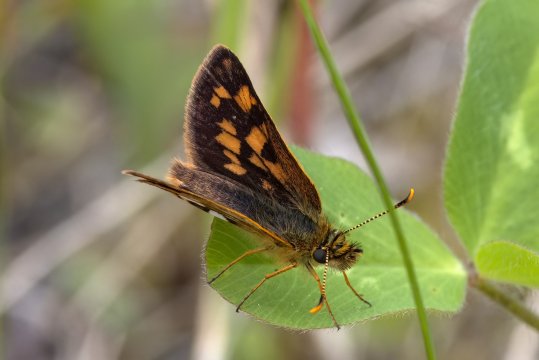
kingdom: Animalia
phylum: Arthropoda
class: Insecta
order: Lepidoptera
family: Hesperiidae
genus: Carterocephalus
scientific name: Carterocephalus mandan
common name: Arctic Skipperling
